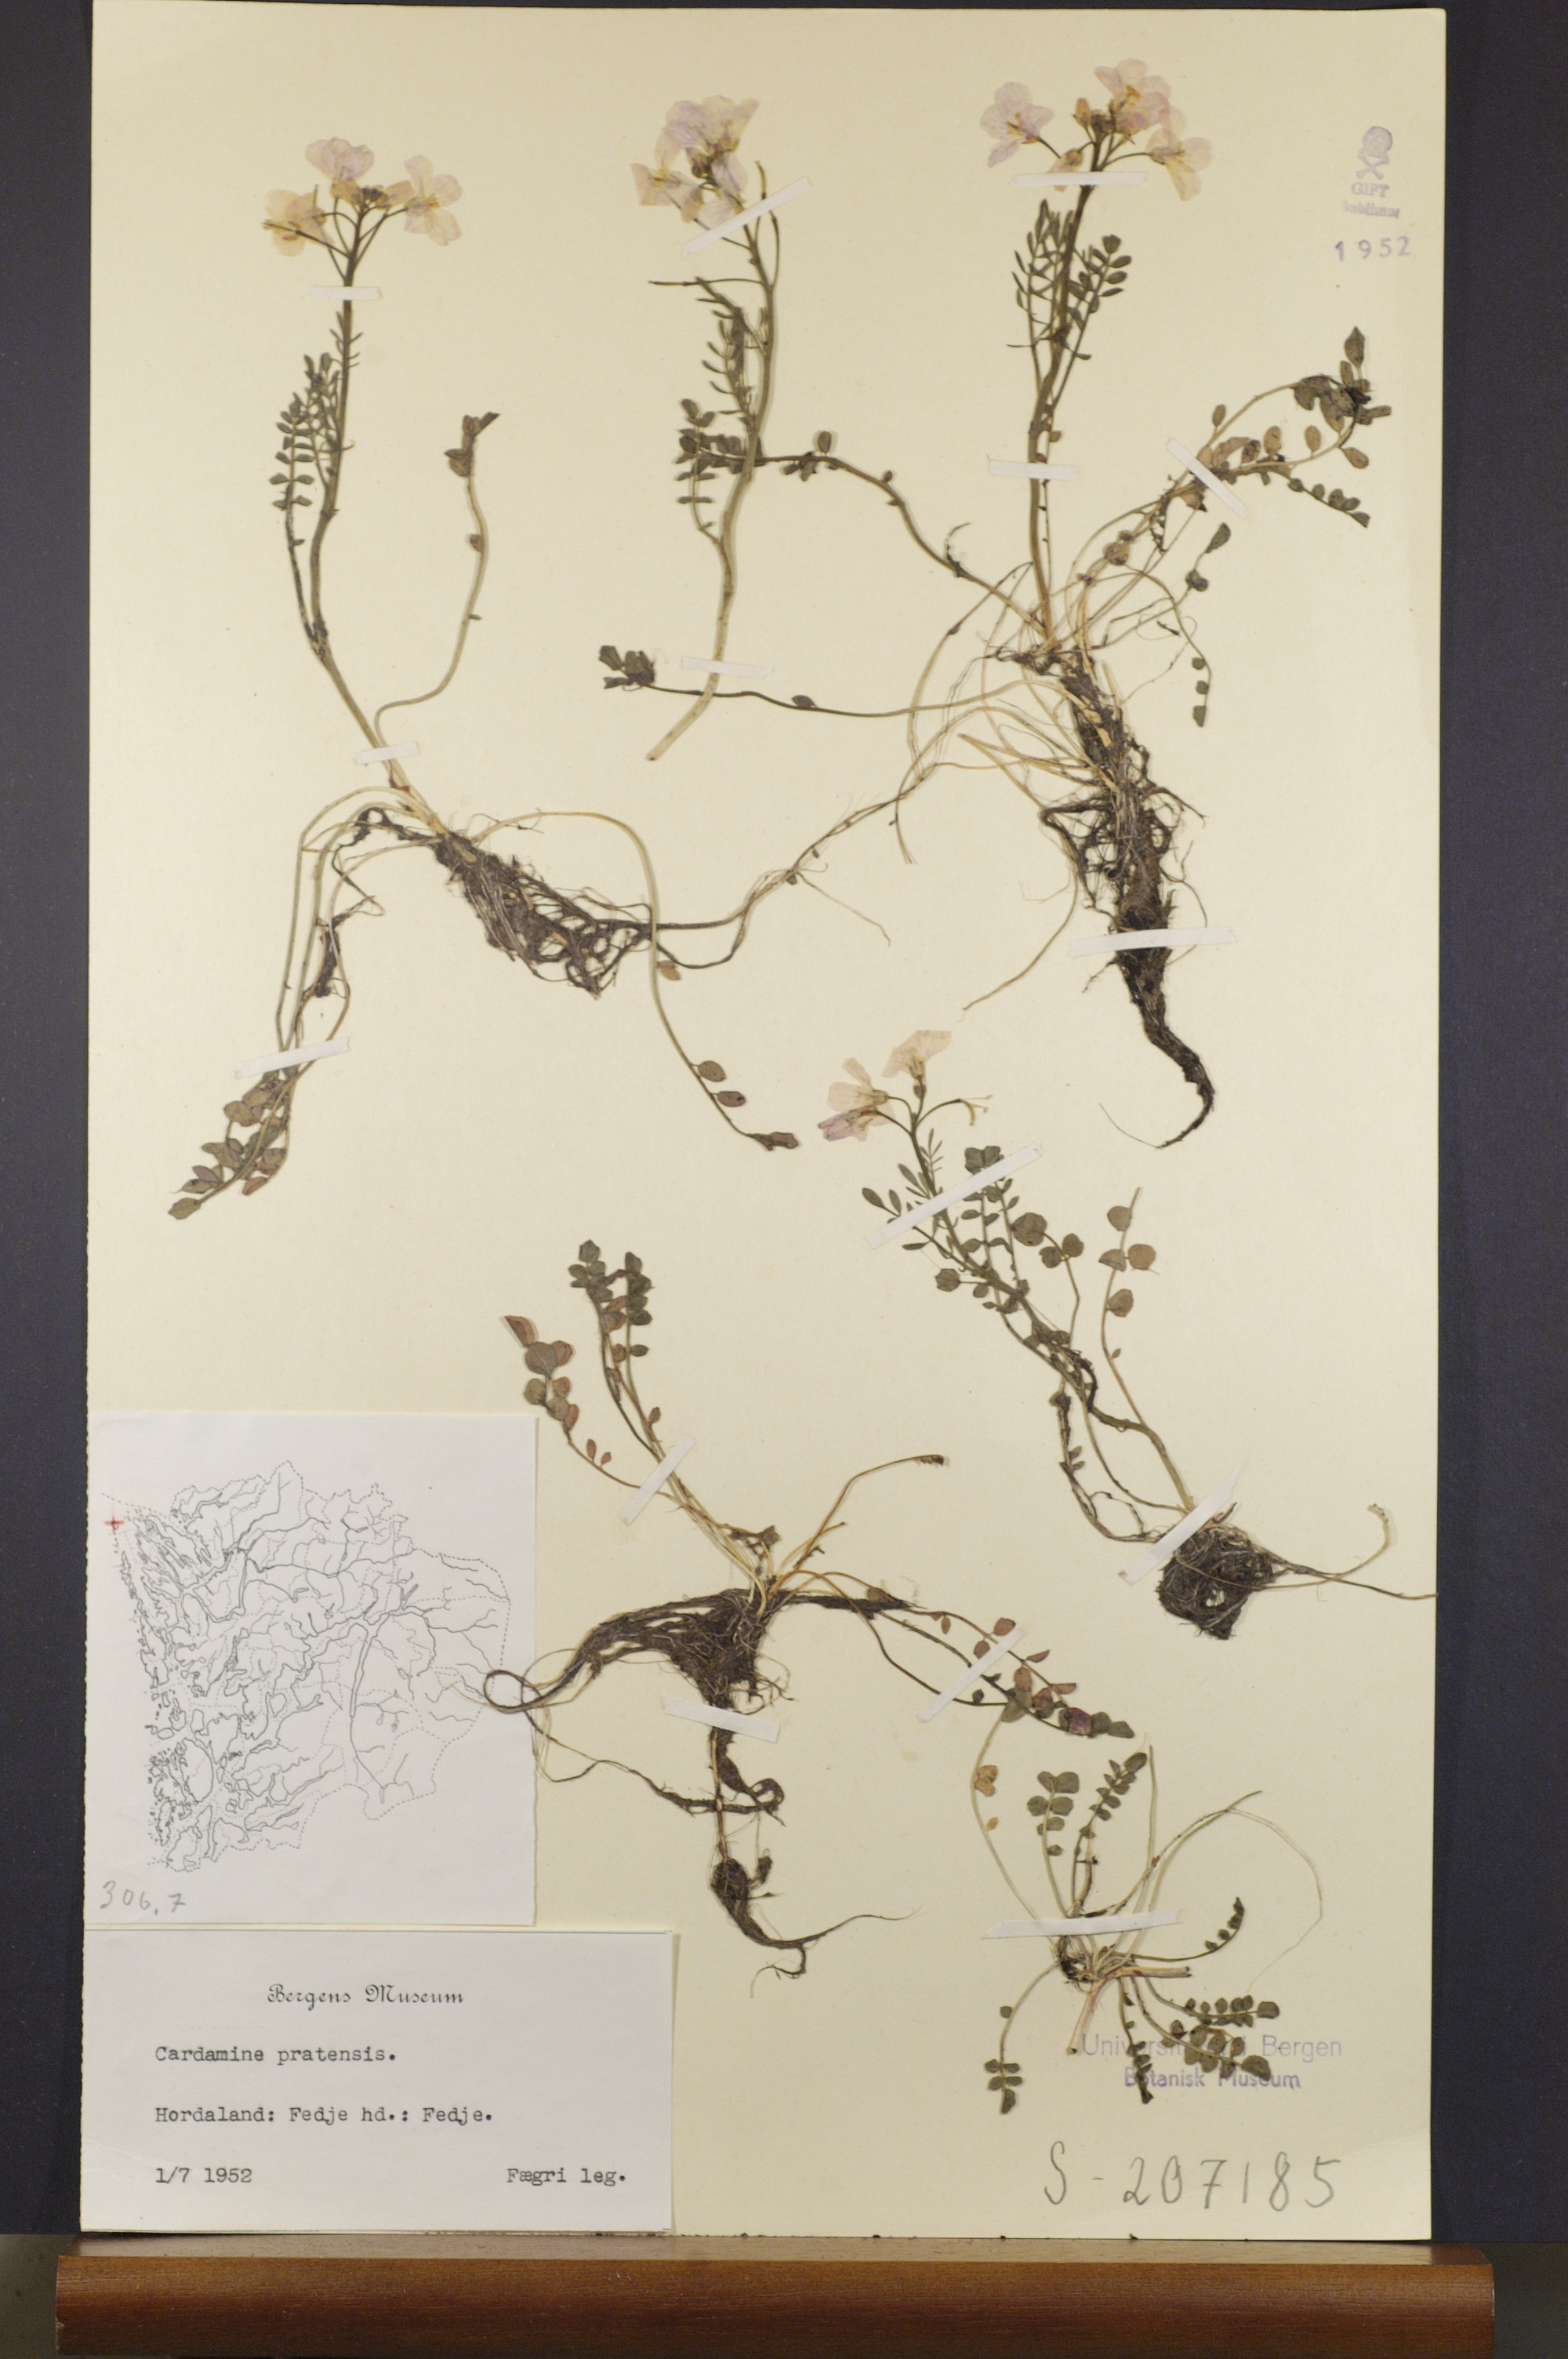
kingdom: Plantae
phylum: Tracheophyta
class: Magnoliopsida
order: Brassicales
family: Brassicaceae
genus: Cardamine
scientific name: Cardamine pratensis
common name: Cuckoo flower
